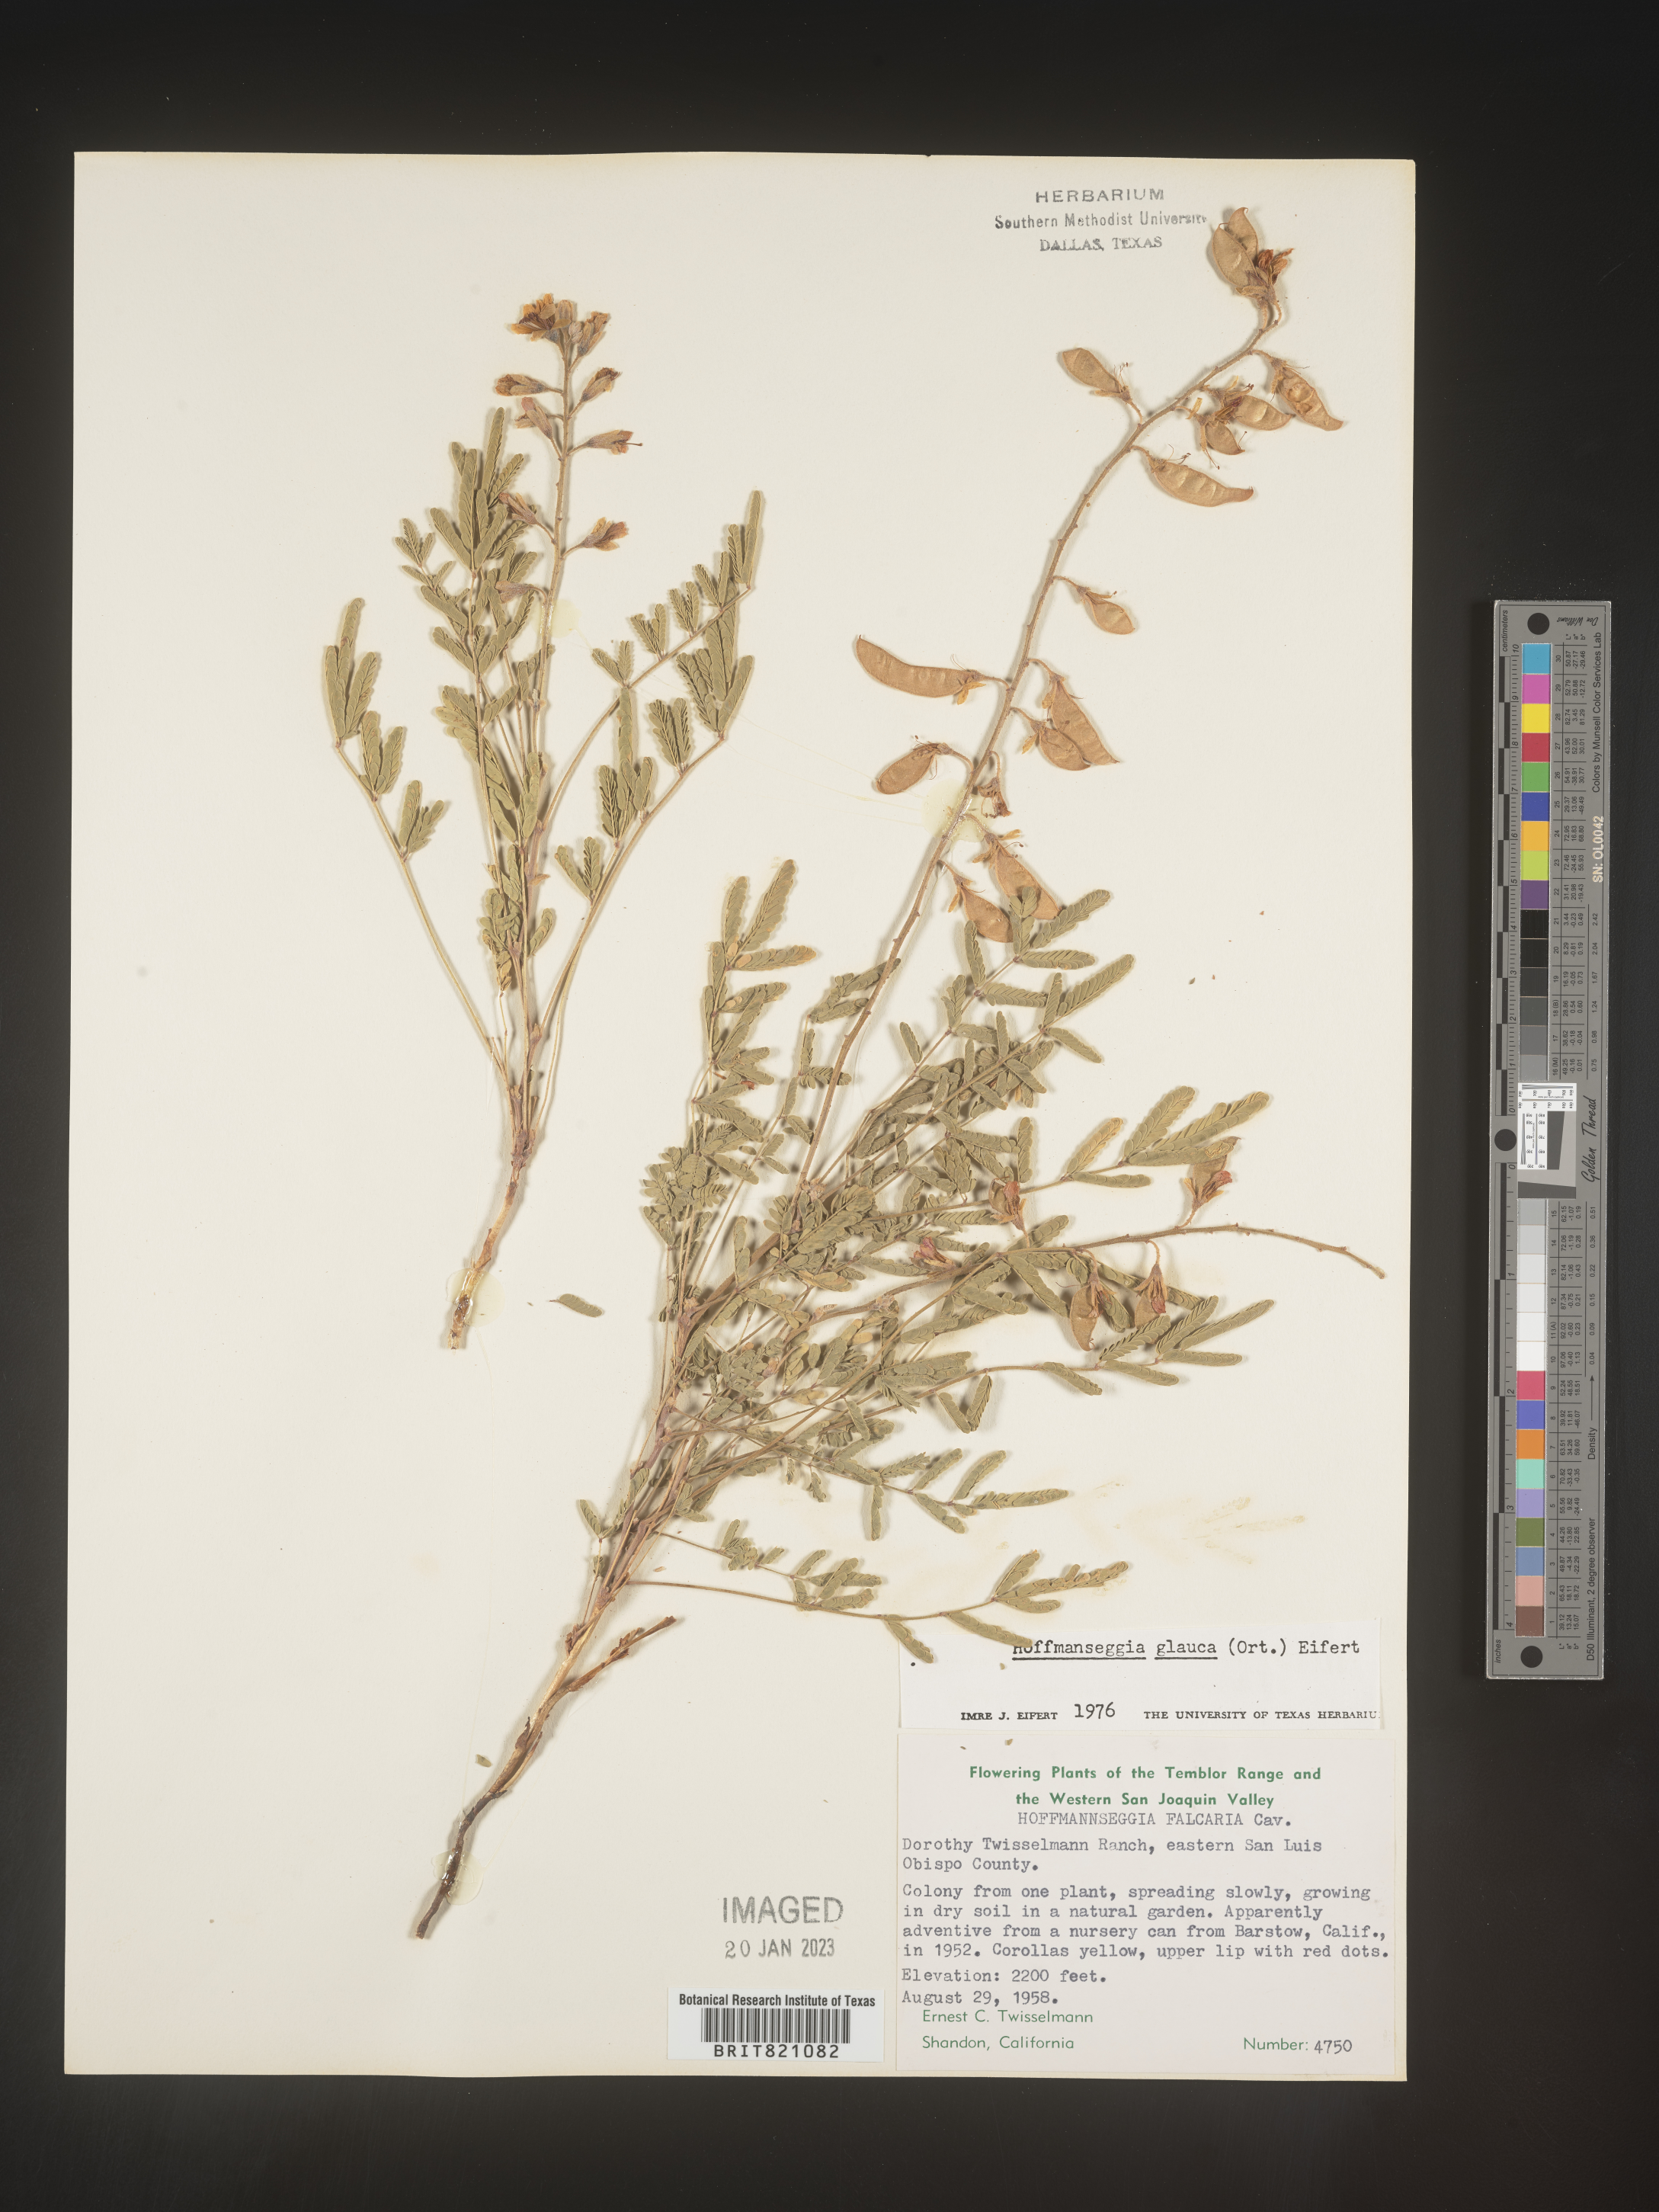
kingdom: Plantae
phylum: Tracheophyta
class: Magnoliopsida
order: Fabales
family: Fabaceae
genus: Hoffmannseggia
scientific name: Hoffmannseggia
